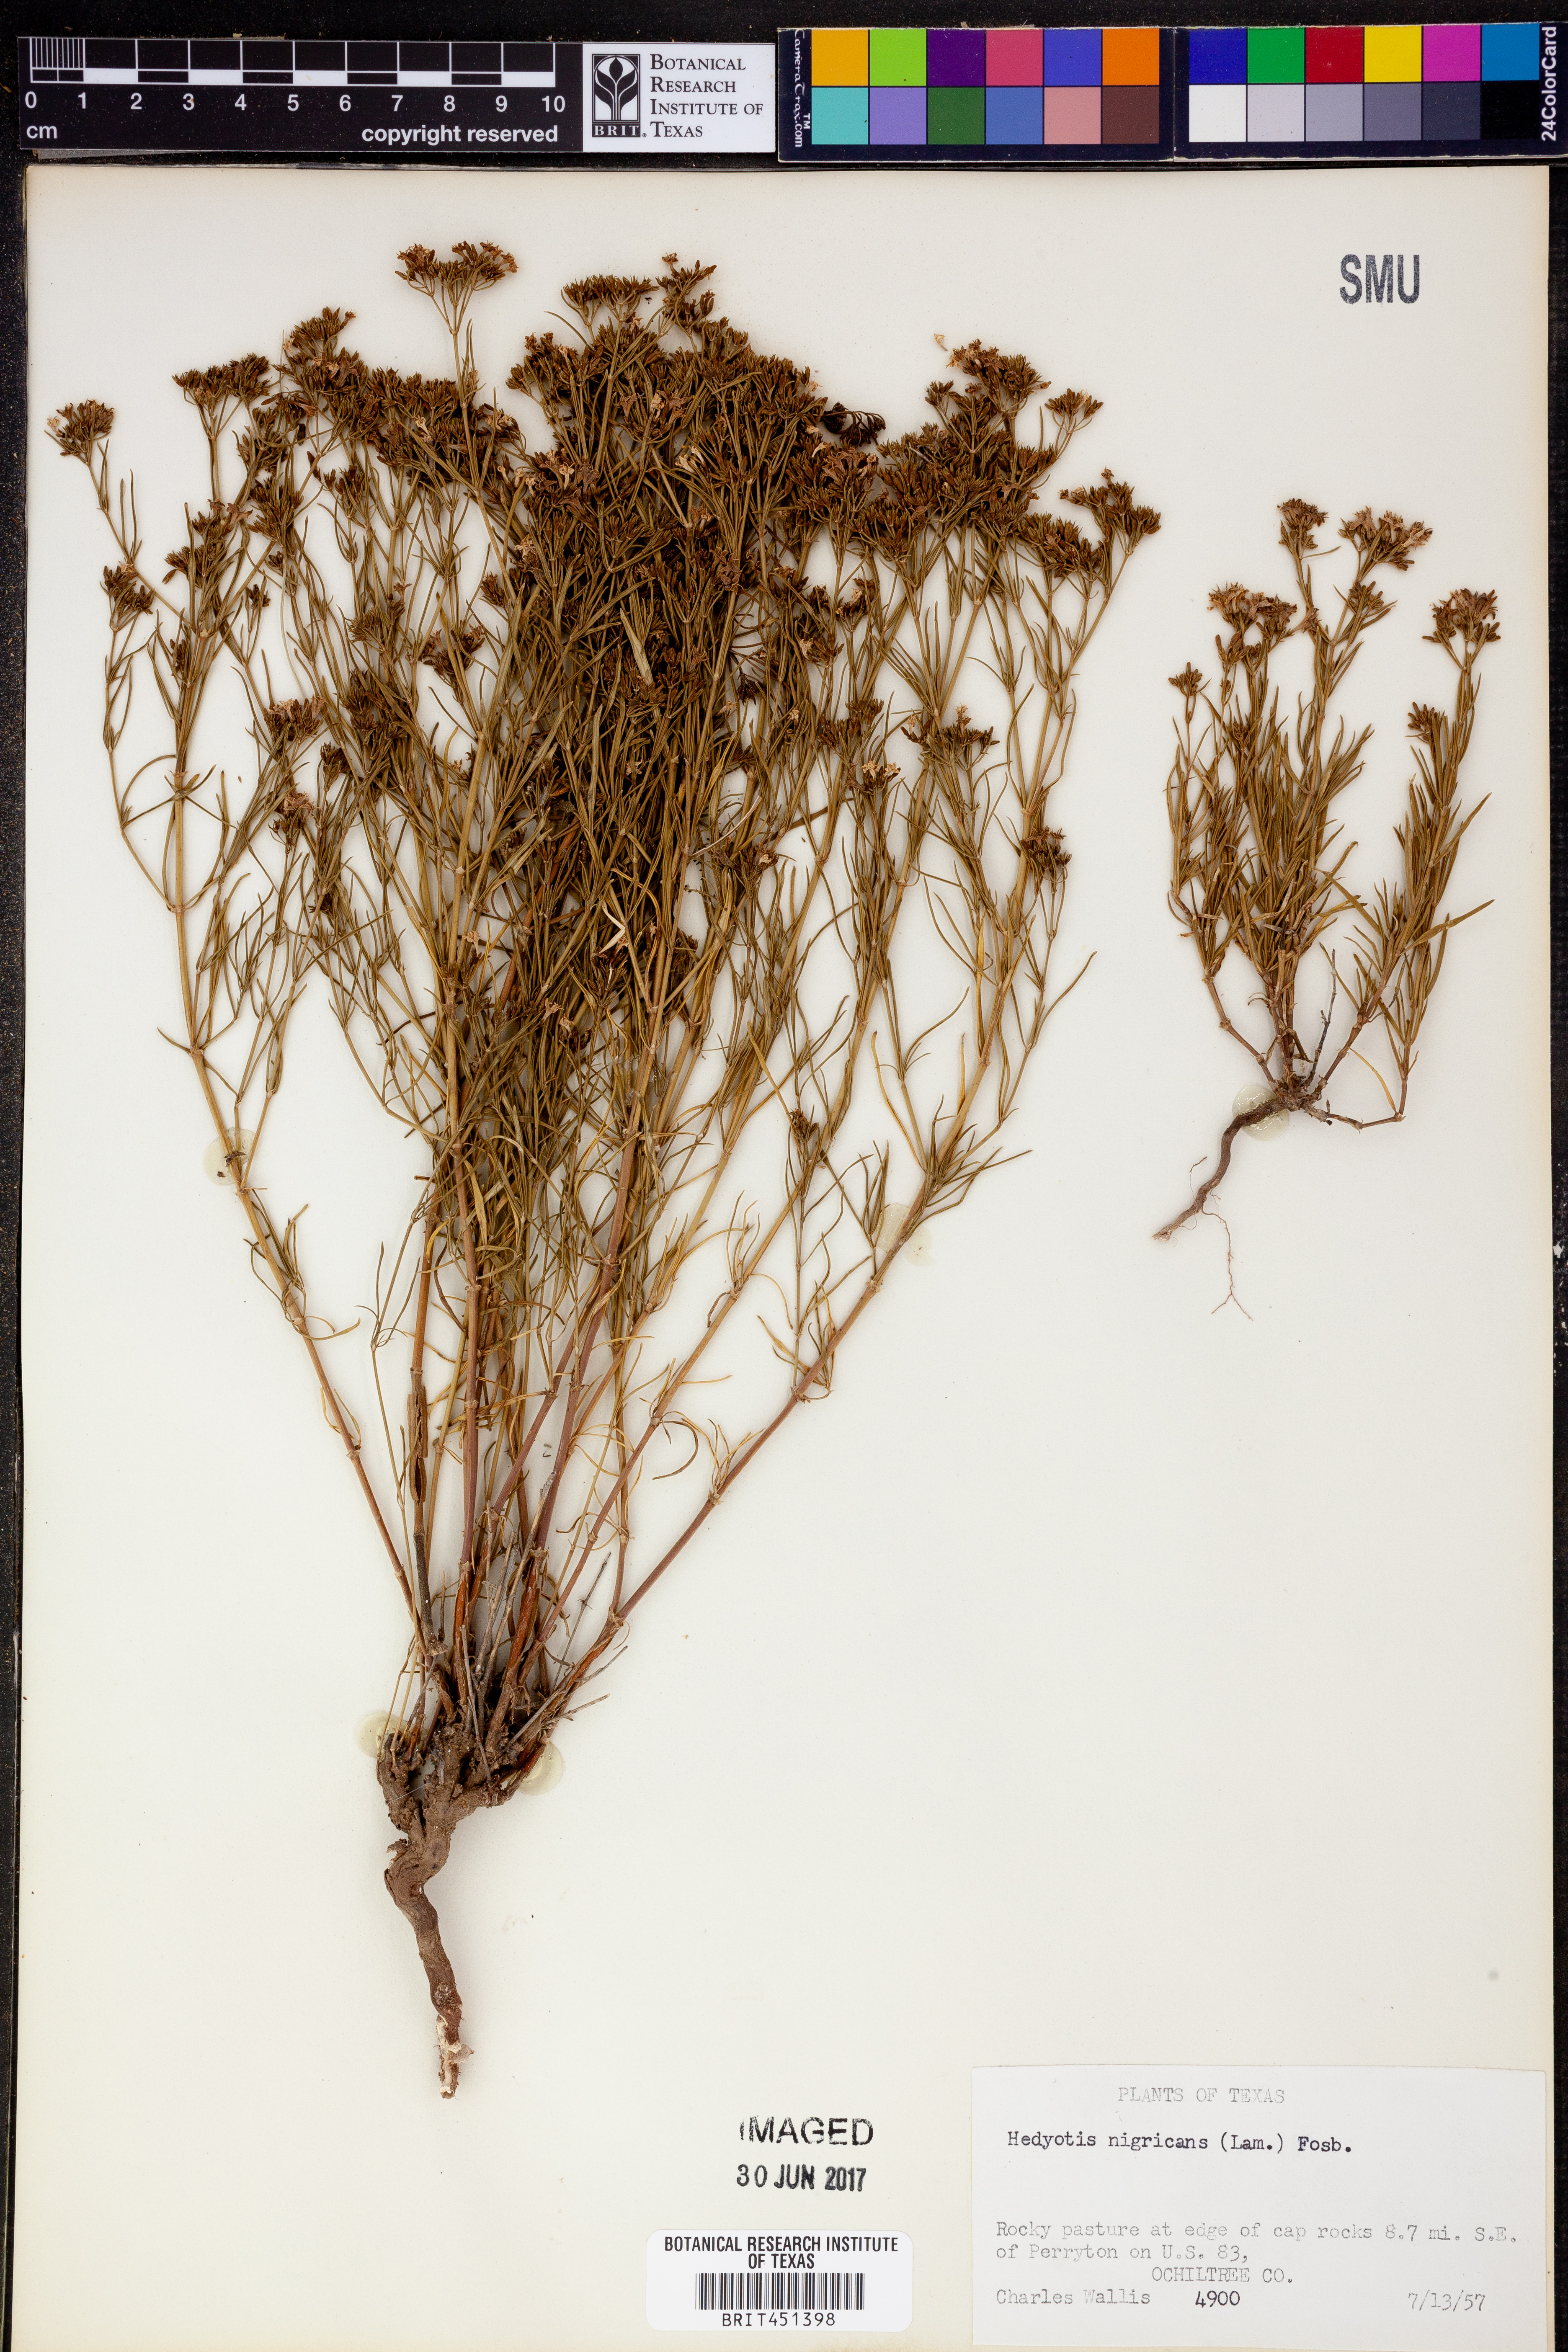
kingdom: Plantae
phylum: Tracheophyta
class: Magnoliopsida
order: Gentianales
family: Rubiaceae
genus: Stenaria
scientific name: Stenaria nigricans
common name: Diamondflowers
